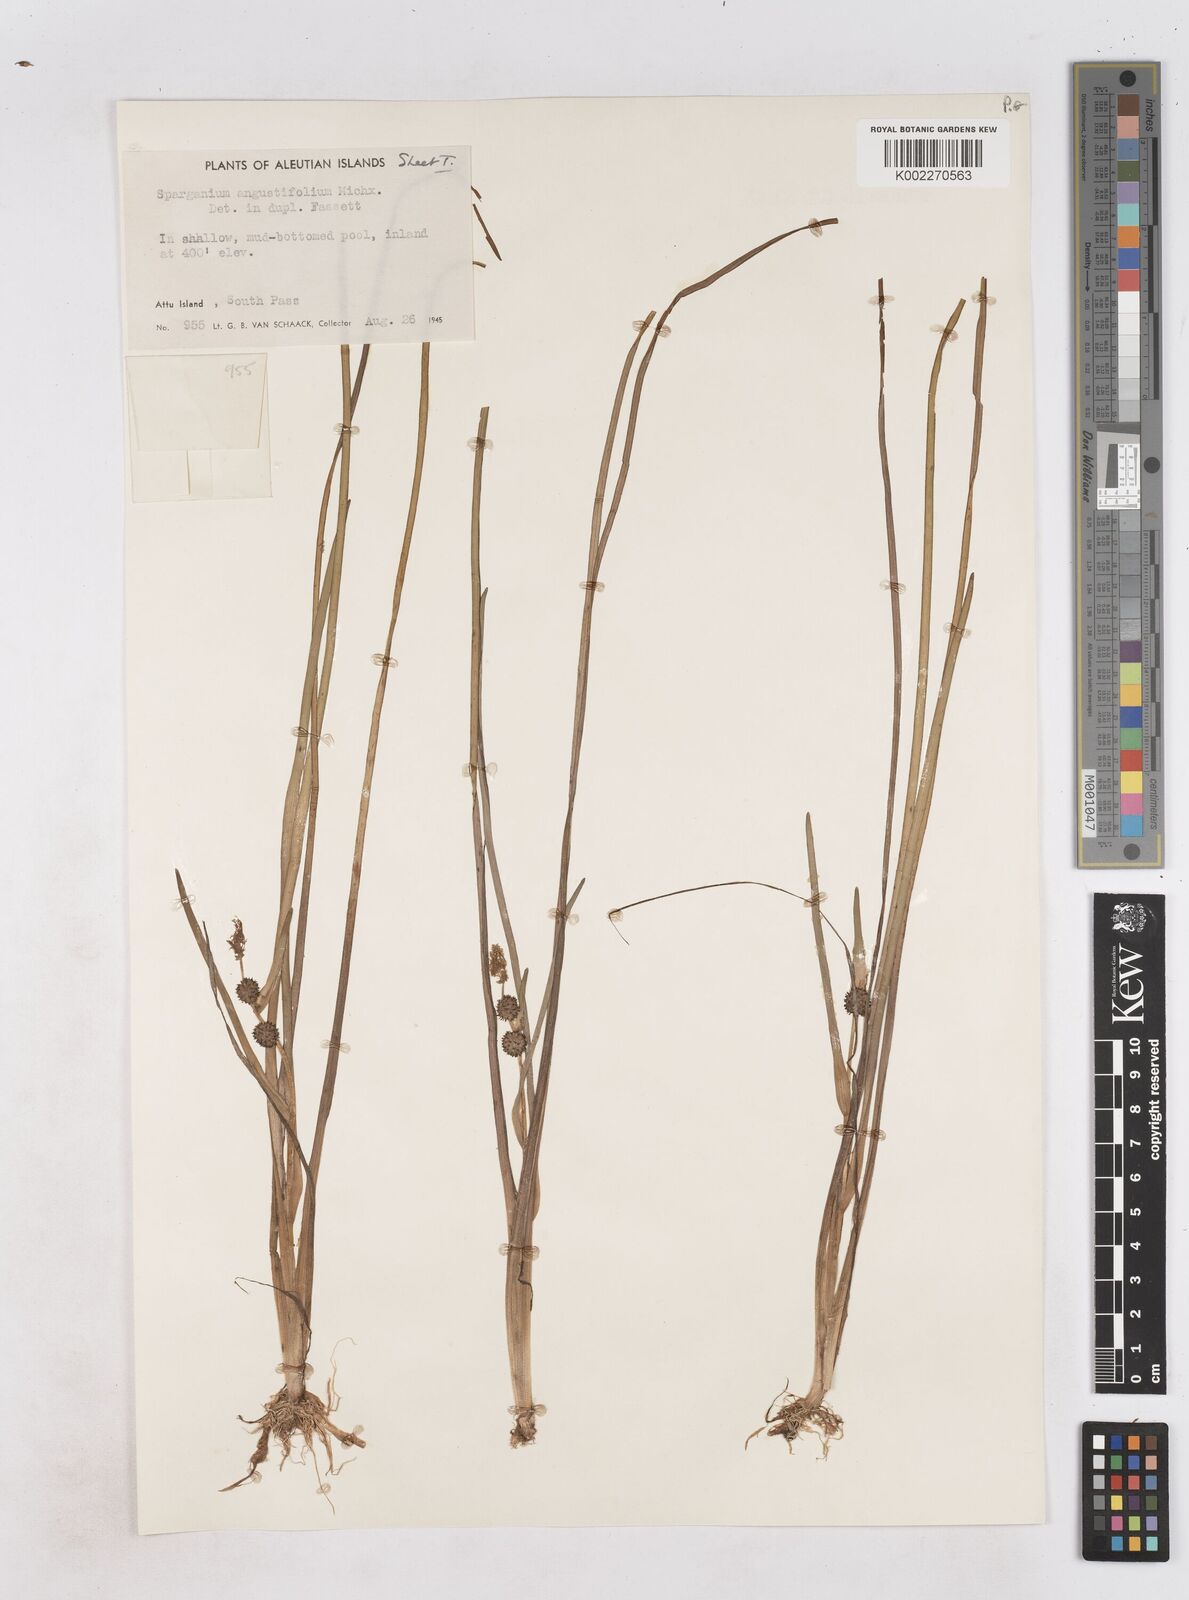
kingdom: Plantae
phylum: Tracheophyta
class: Liliopsida
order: Poales
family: Typhaceae
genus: Sparganium
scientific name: Sparganium angustifolium
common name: Floating bur-reed
